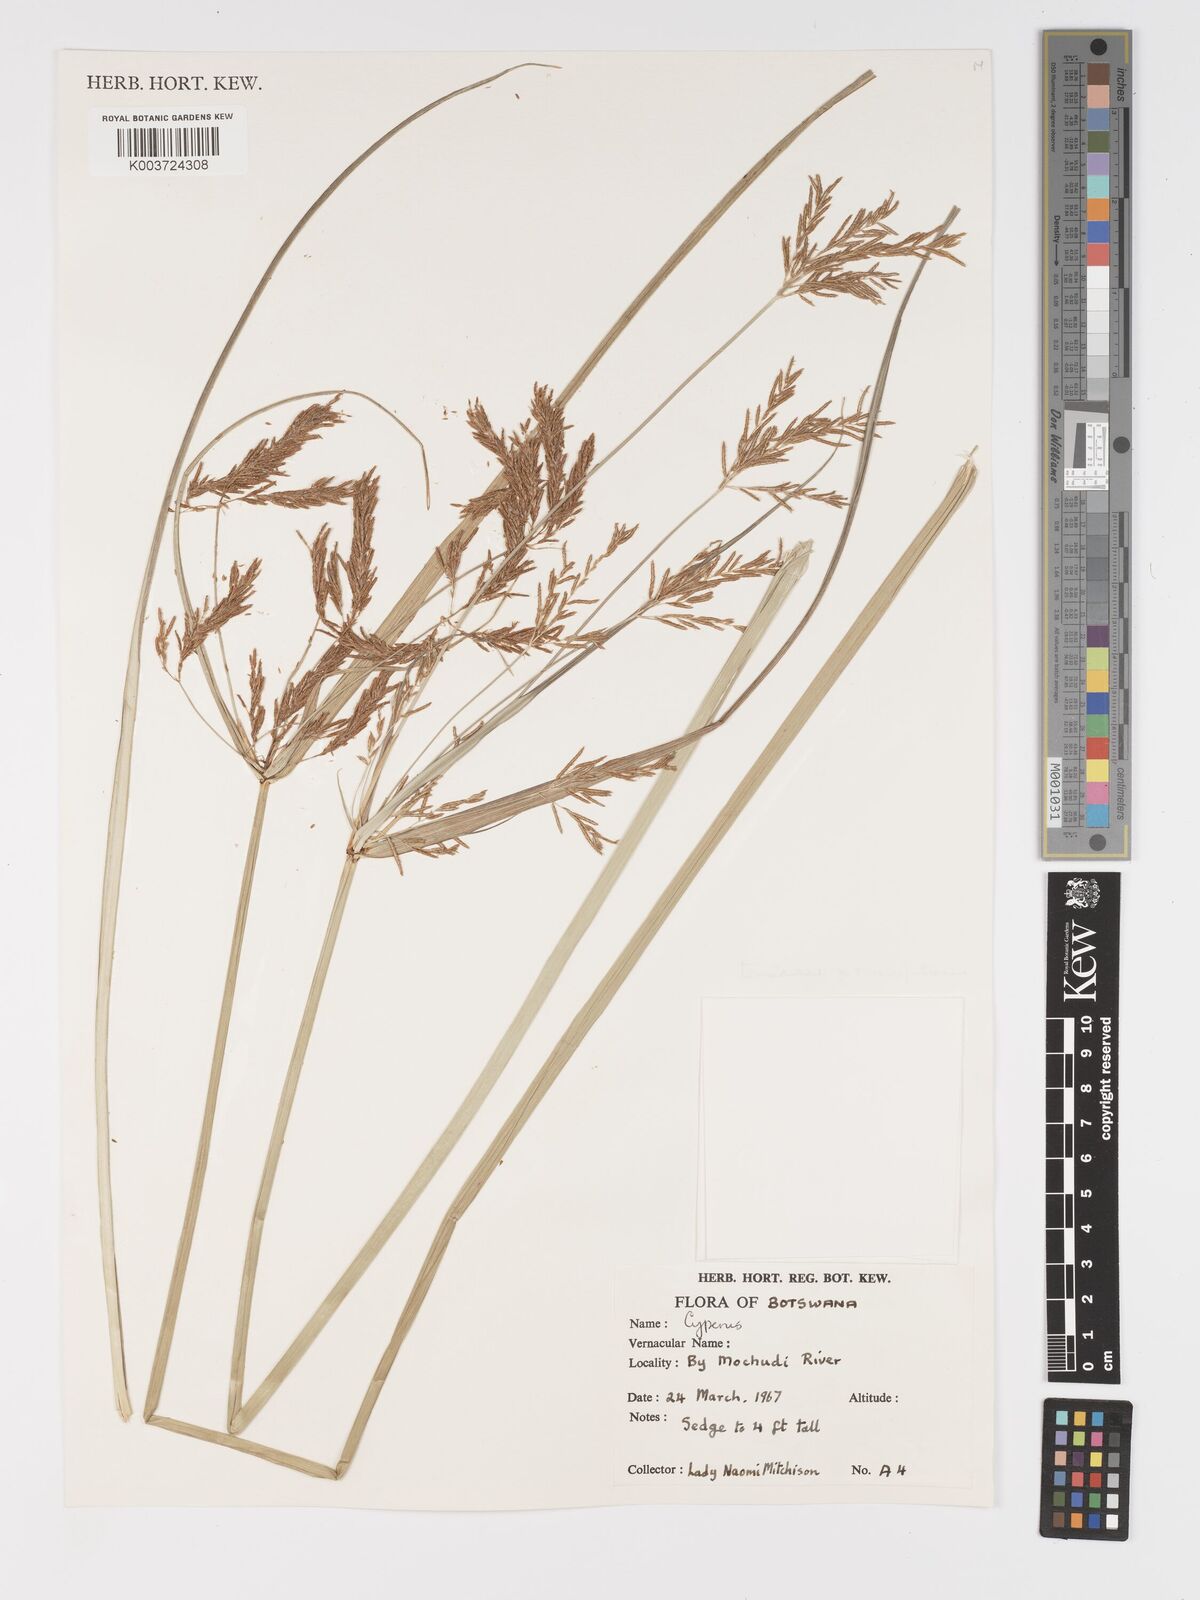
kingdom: Plantae
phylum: Tracheophyta
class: Liliopsida
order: Poales
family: Cyperaceae
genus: Cyperus
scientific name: Cyperus
